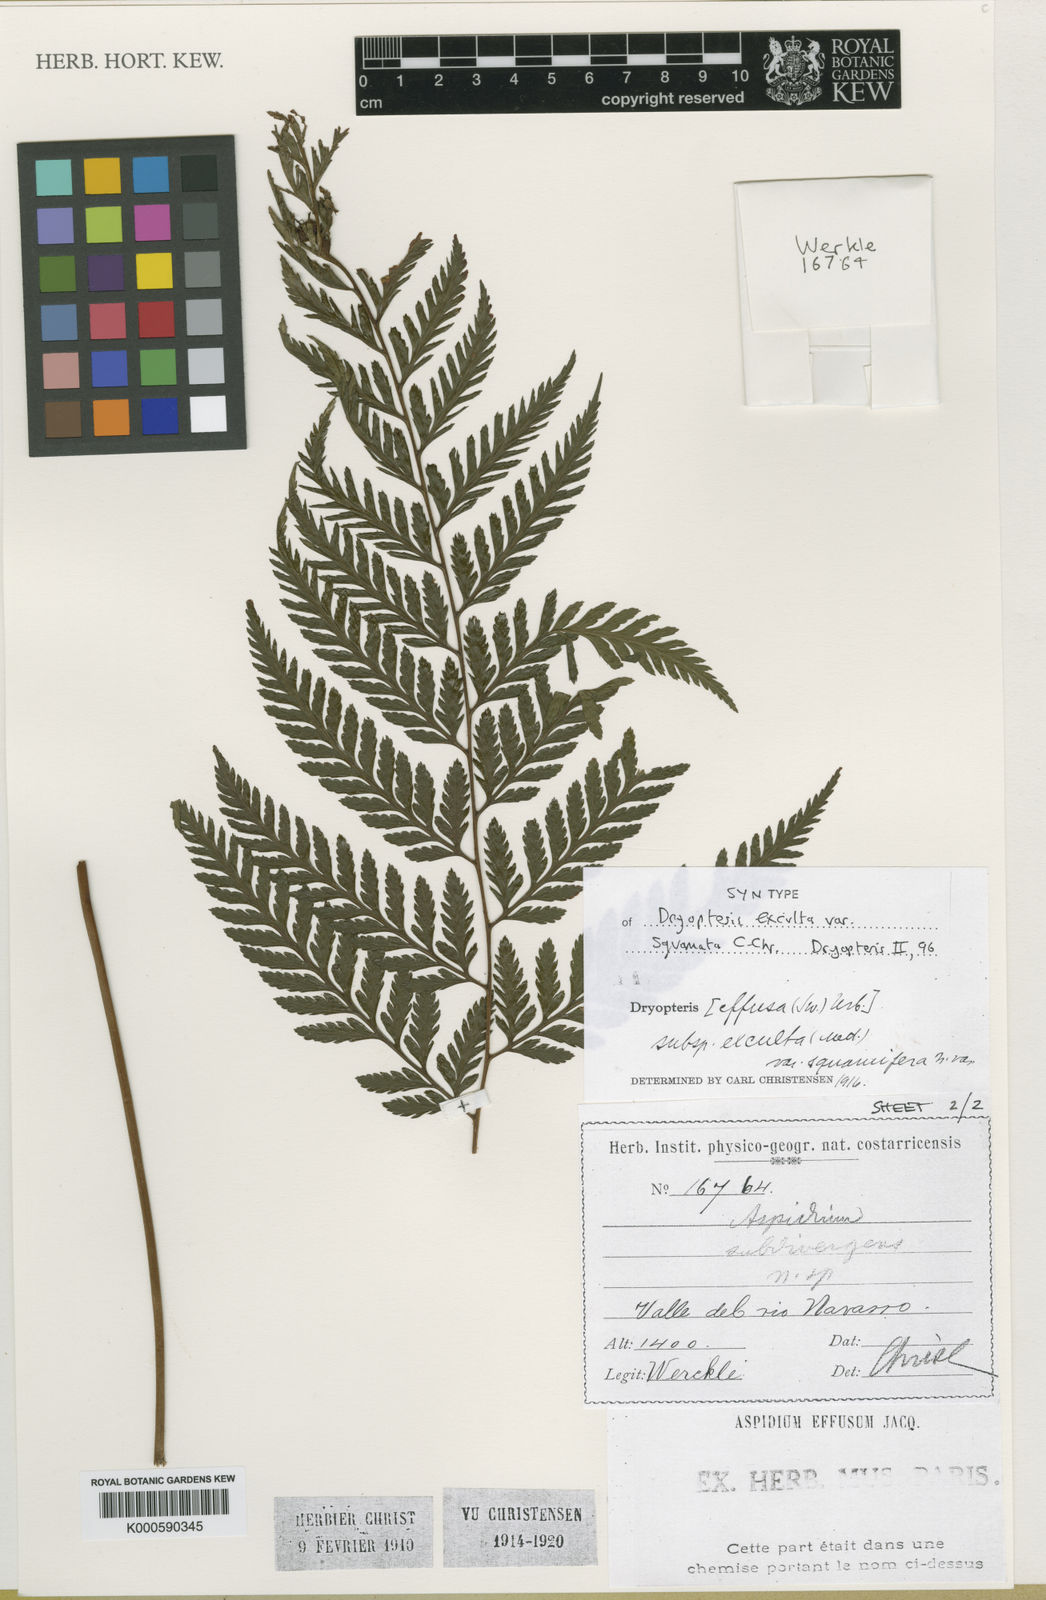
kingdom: Plantae
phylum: Tracheophyta
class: Polypodiopsida
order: Polypodiales
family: Dryopteridaceae
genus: Parapolystichum
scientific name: Parapolystichum excultum
